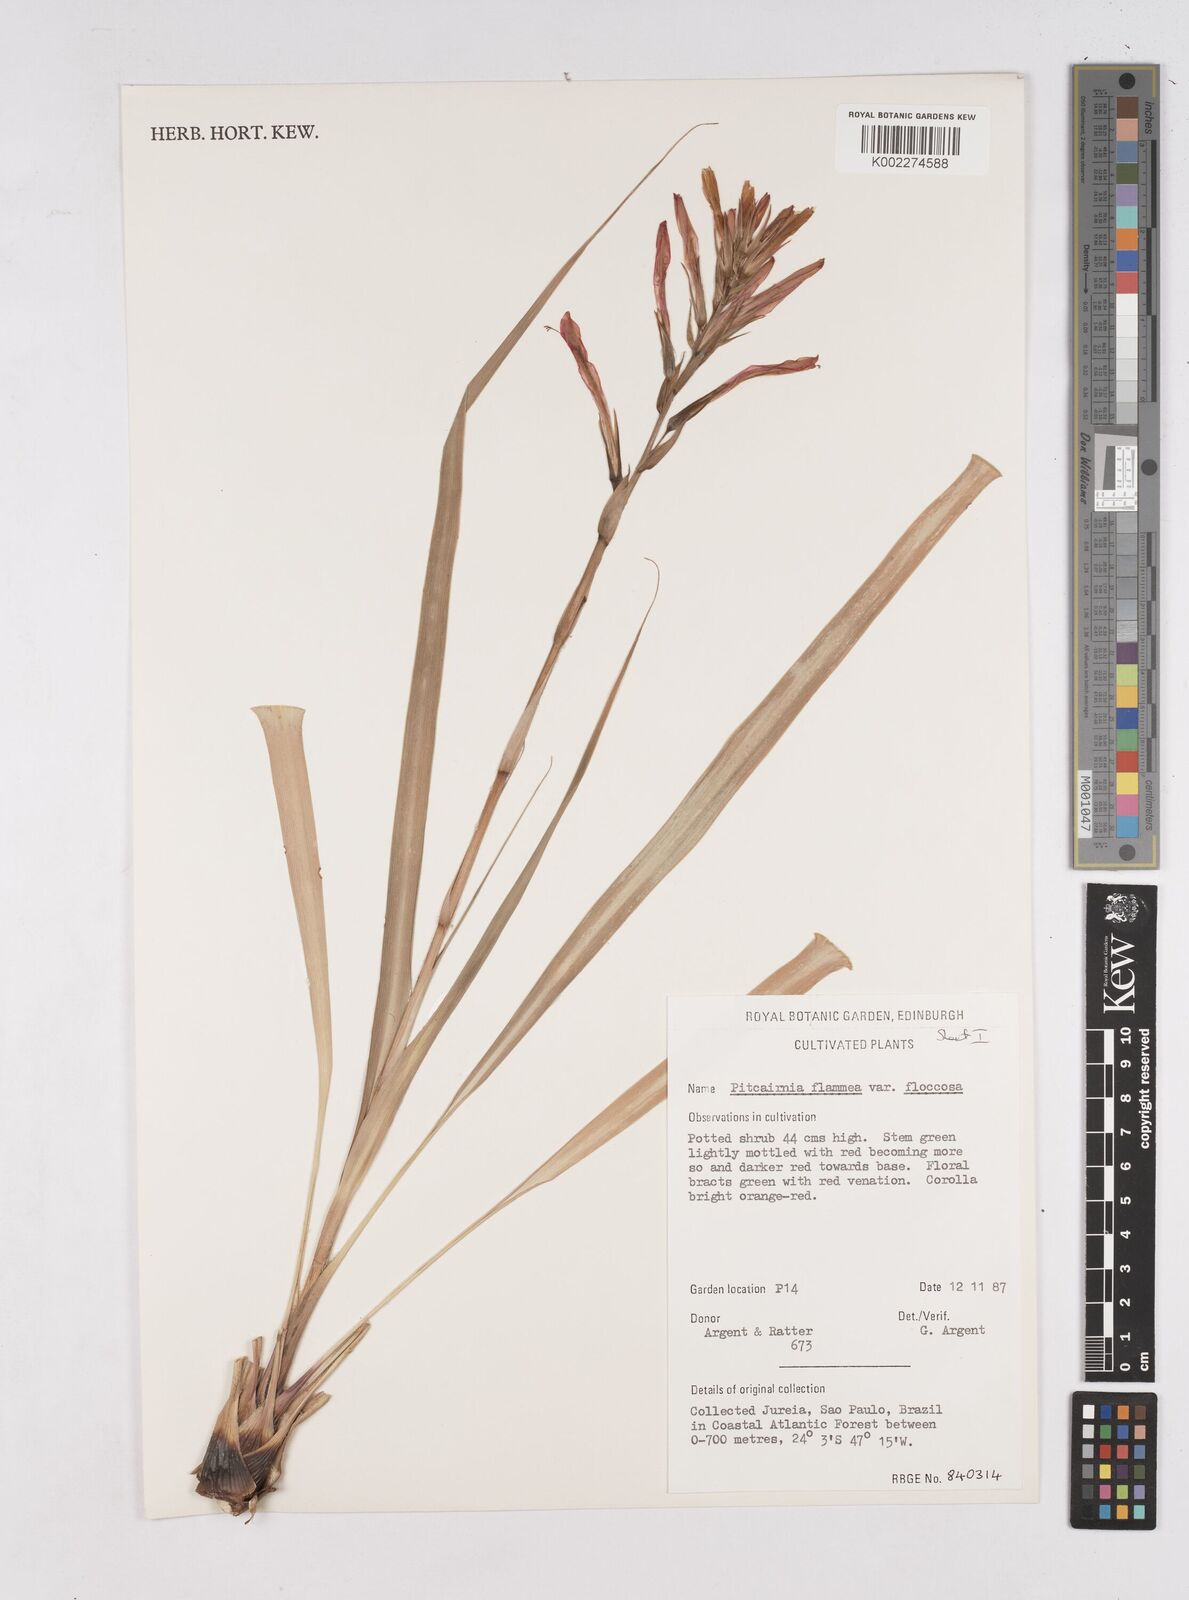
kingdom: Plantae
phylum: Tracheophyta
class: Liliopsida
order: Poales
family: Bromeliaceae
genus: Pitcairnia
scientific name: Pitcairnia flammea
